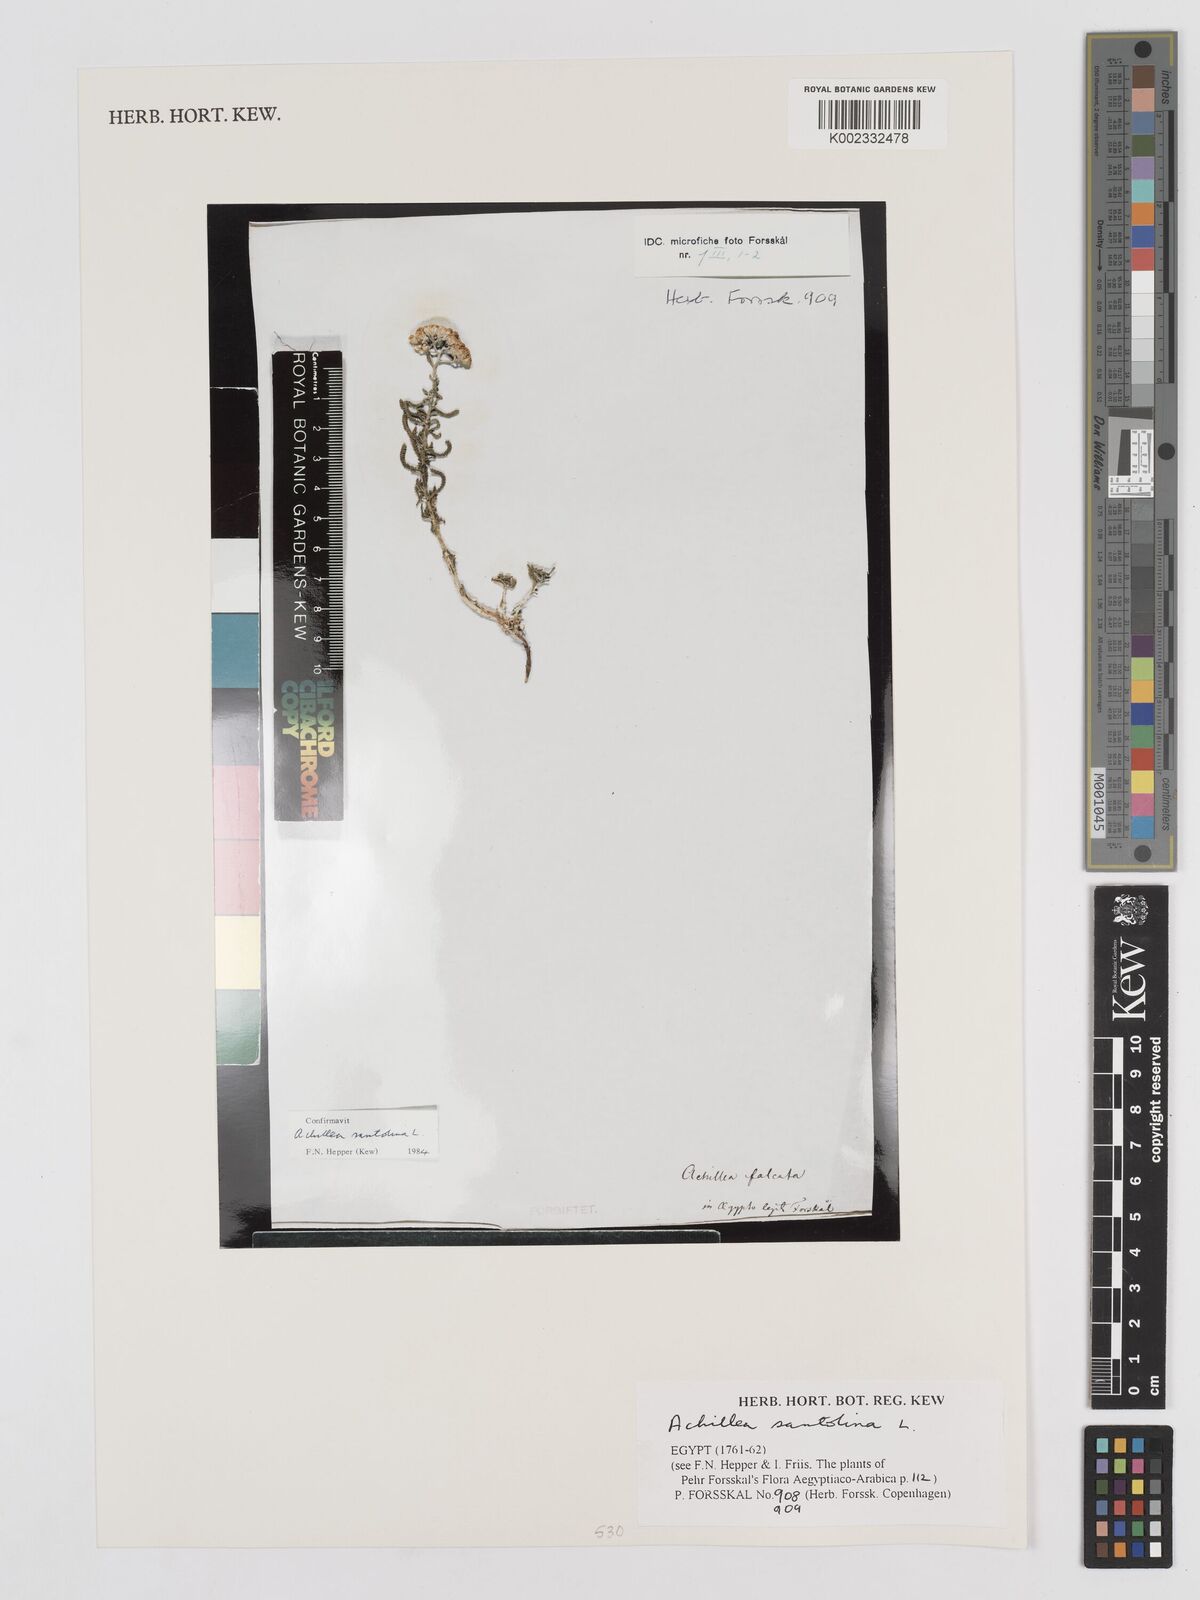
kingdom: Plantae
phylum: Tracheophyta
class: Magnoliopsida
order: Asterales
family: Asteraceae
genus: Achillea
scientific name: Achillea tenuifolia
